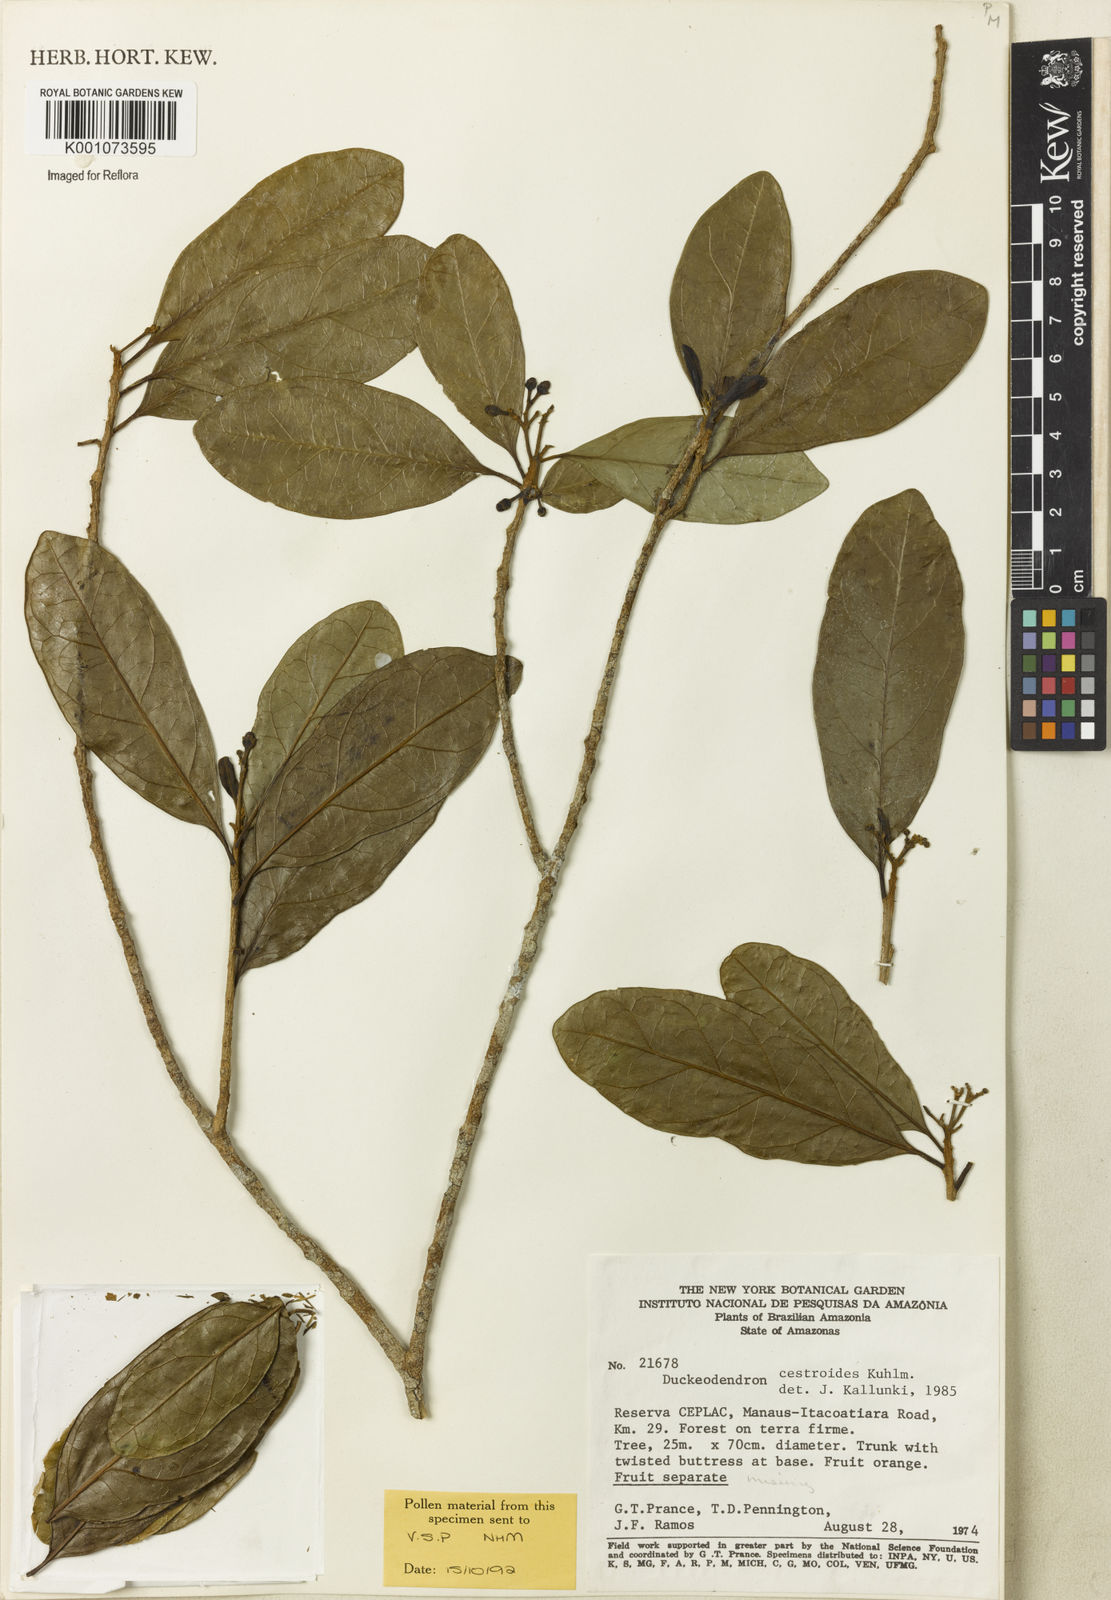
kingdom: Plantae
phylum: Tracheophyta
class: Magnoliopsida
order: Solanales
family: Solanaceae
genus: Duckeodendron
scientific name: Duckeodendron cestroides
